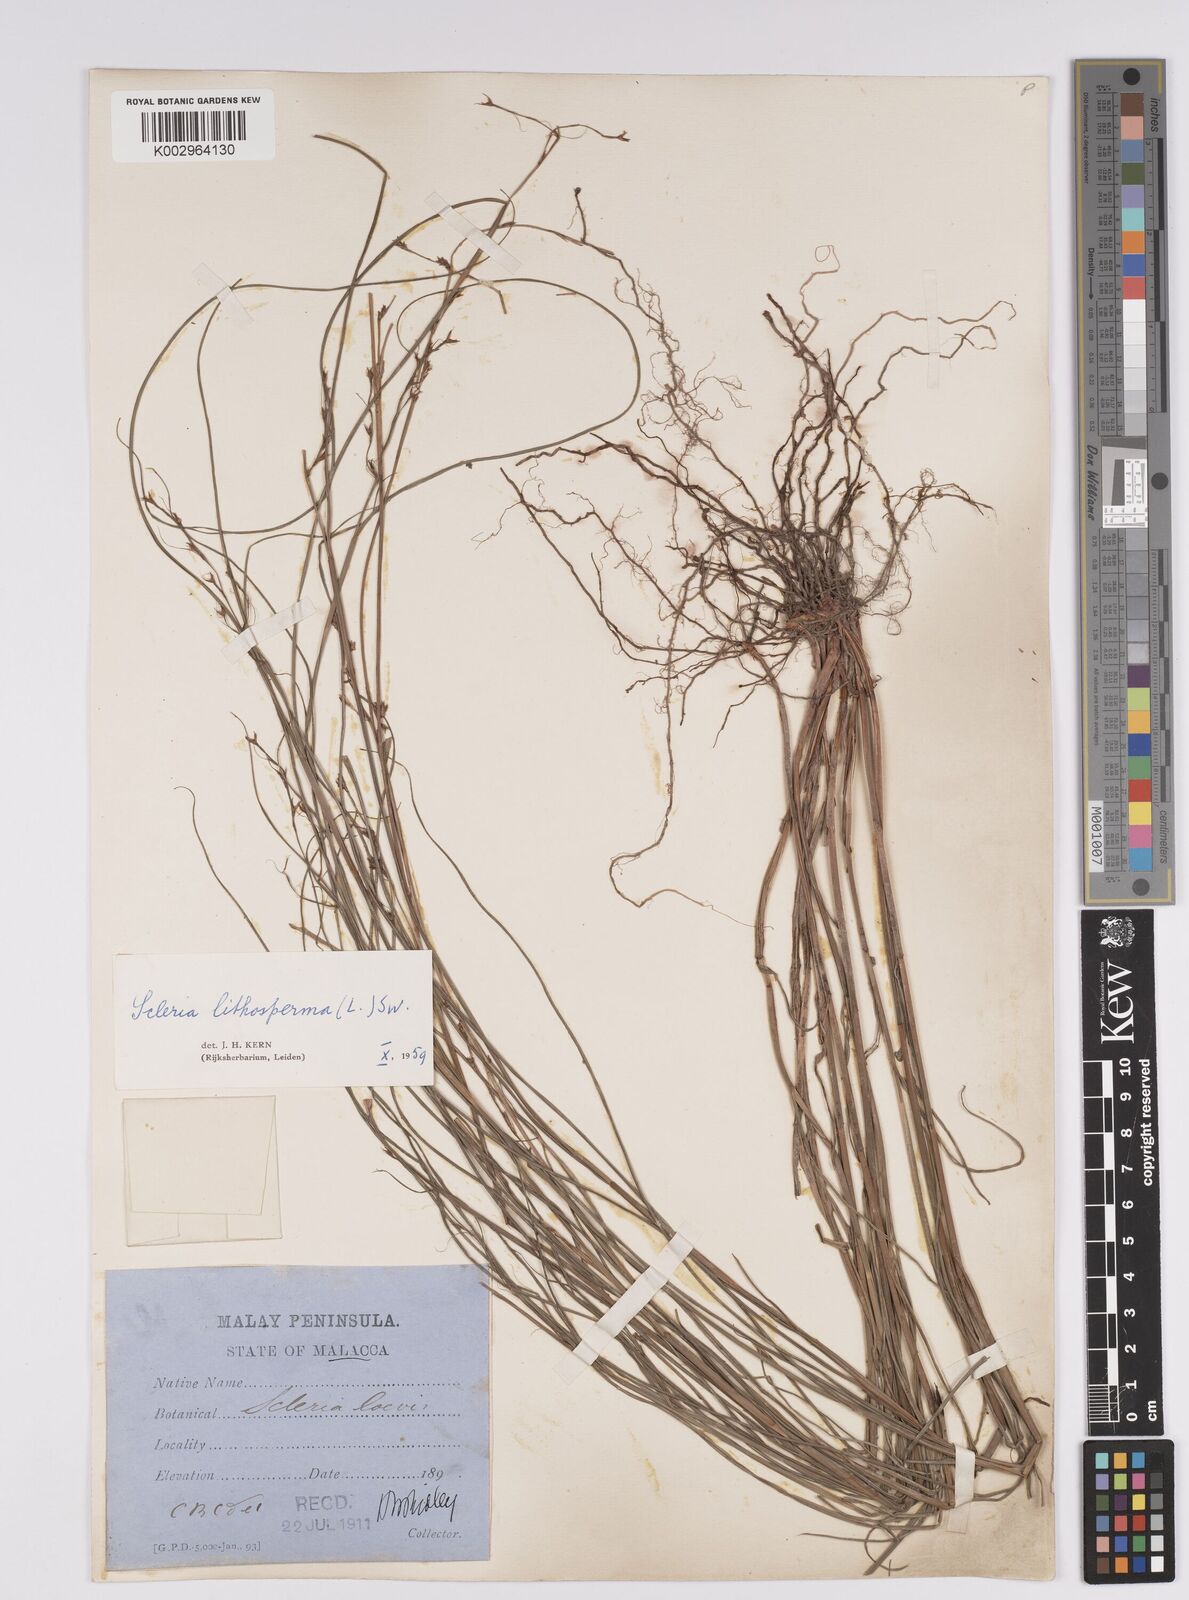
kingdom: Plantae
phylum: Tracheophyta
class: Liliopsida
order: Poales
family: Cyperaceae
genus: Scleria
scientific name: Scleria lithosperma
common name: Florida keys nut-rush
